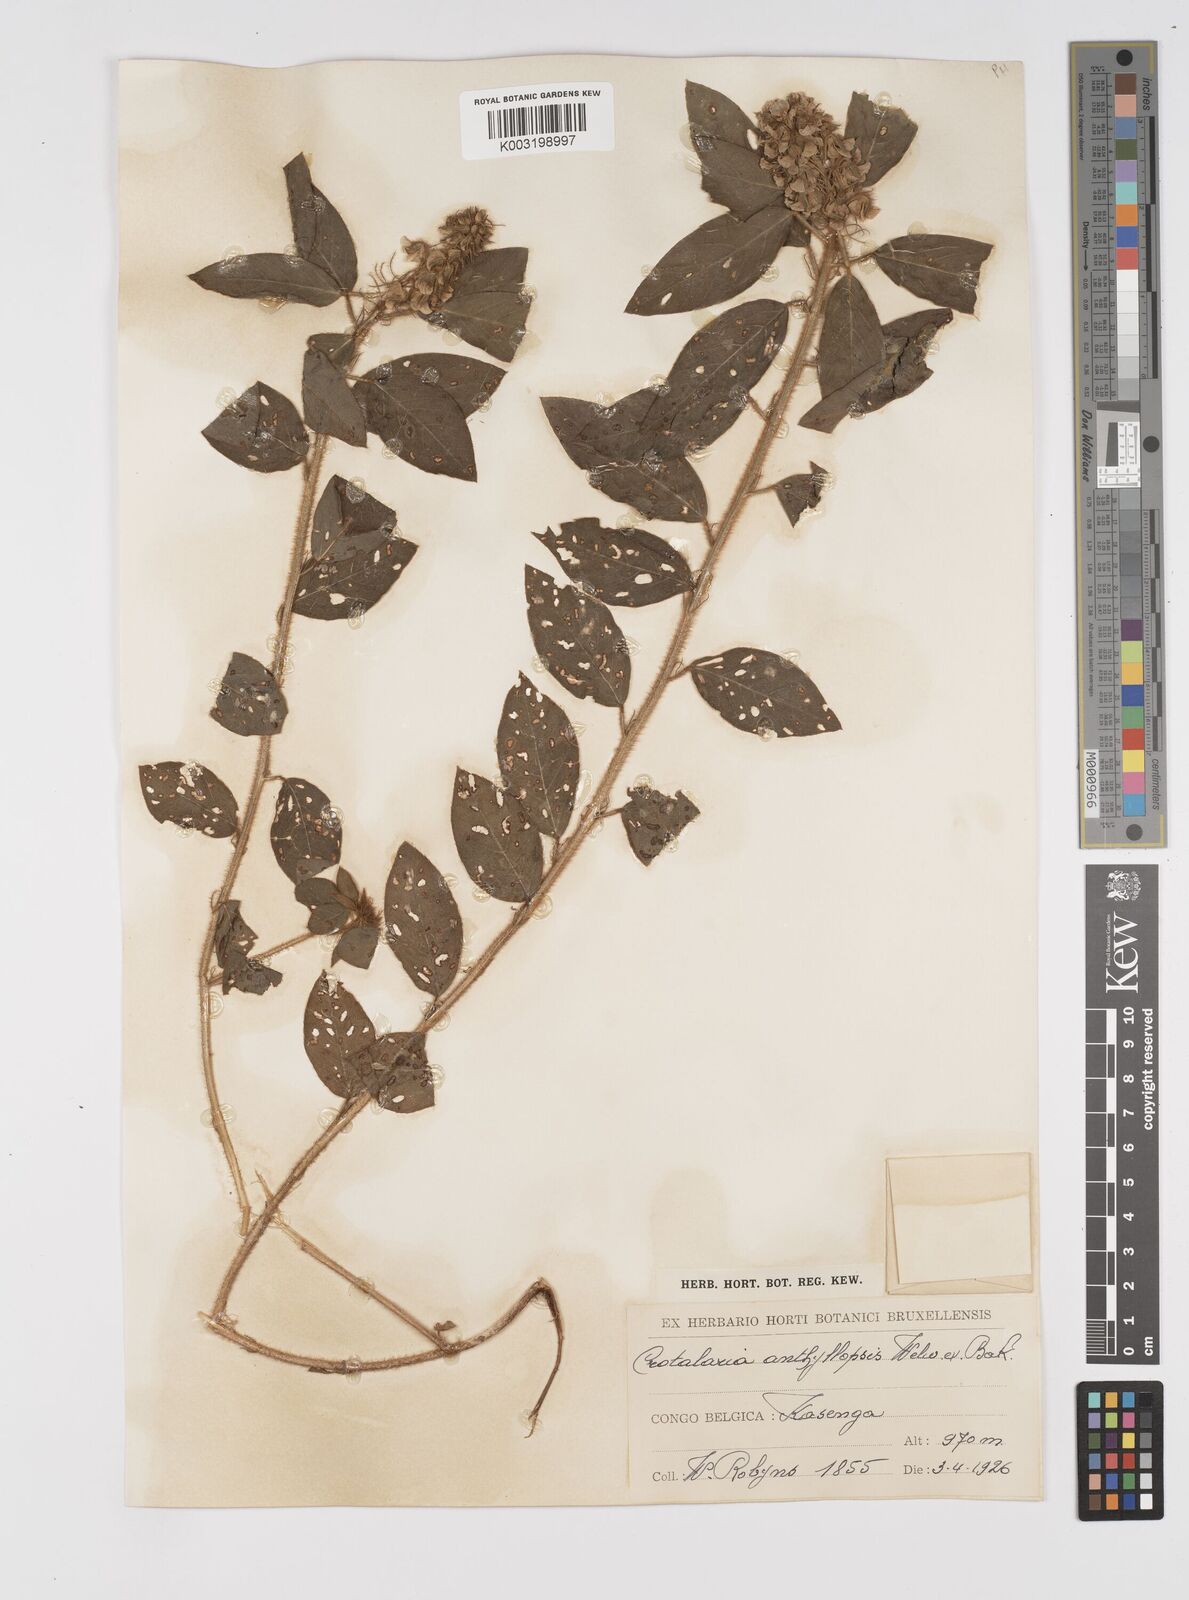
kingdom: Plantae
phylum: Tracheophyta
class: Magnoliopsida
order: Fabales
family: Fabaceae
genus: Crotalaria
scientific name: Crotalaria anthyllopsis
